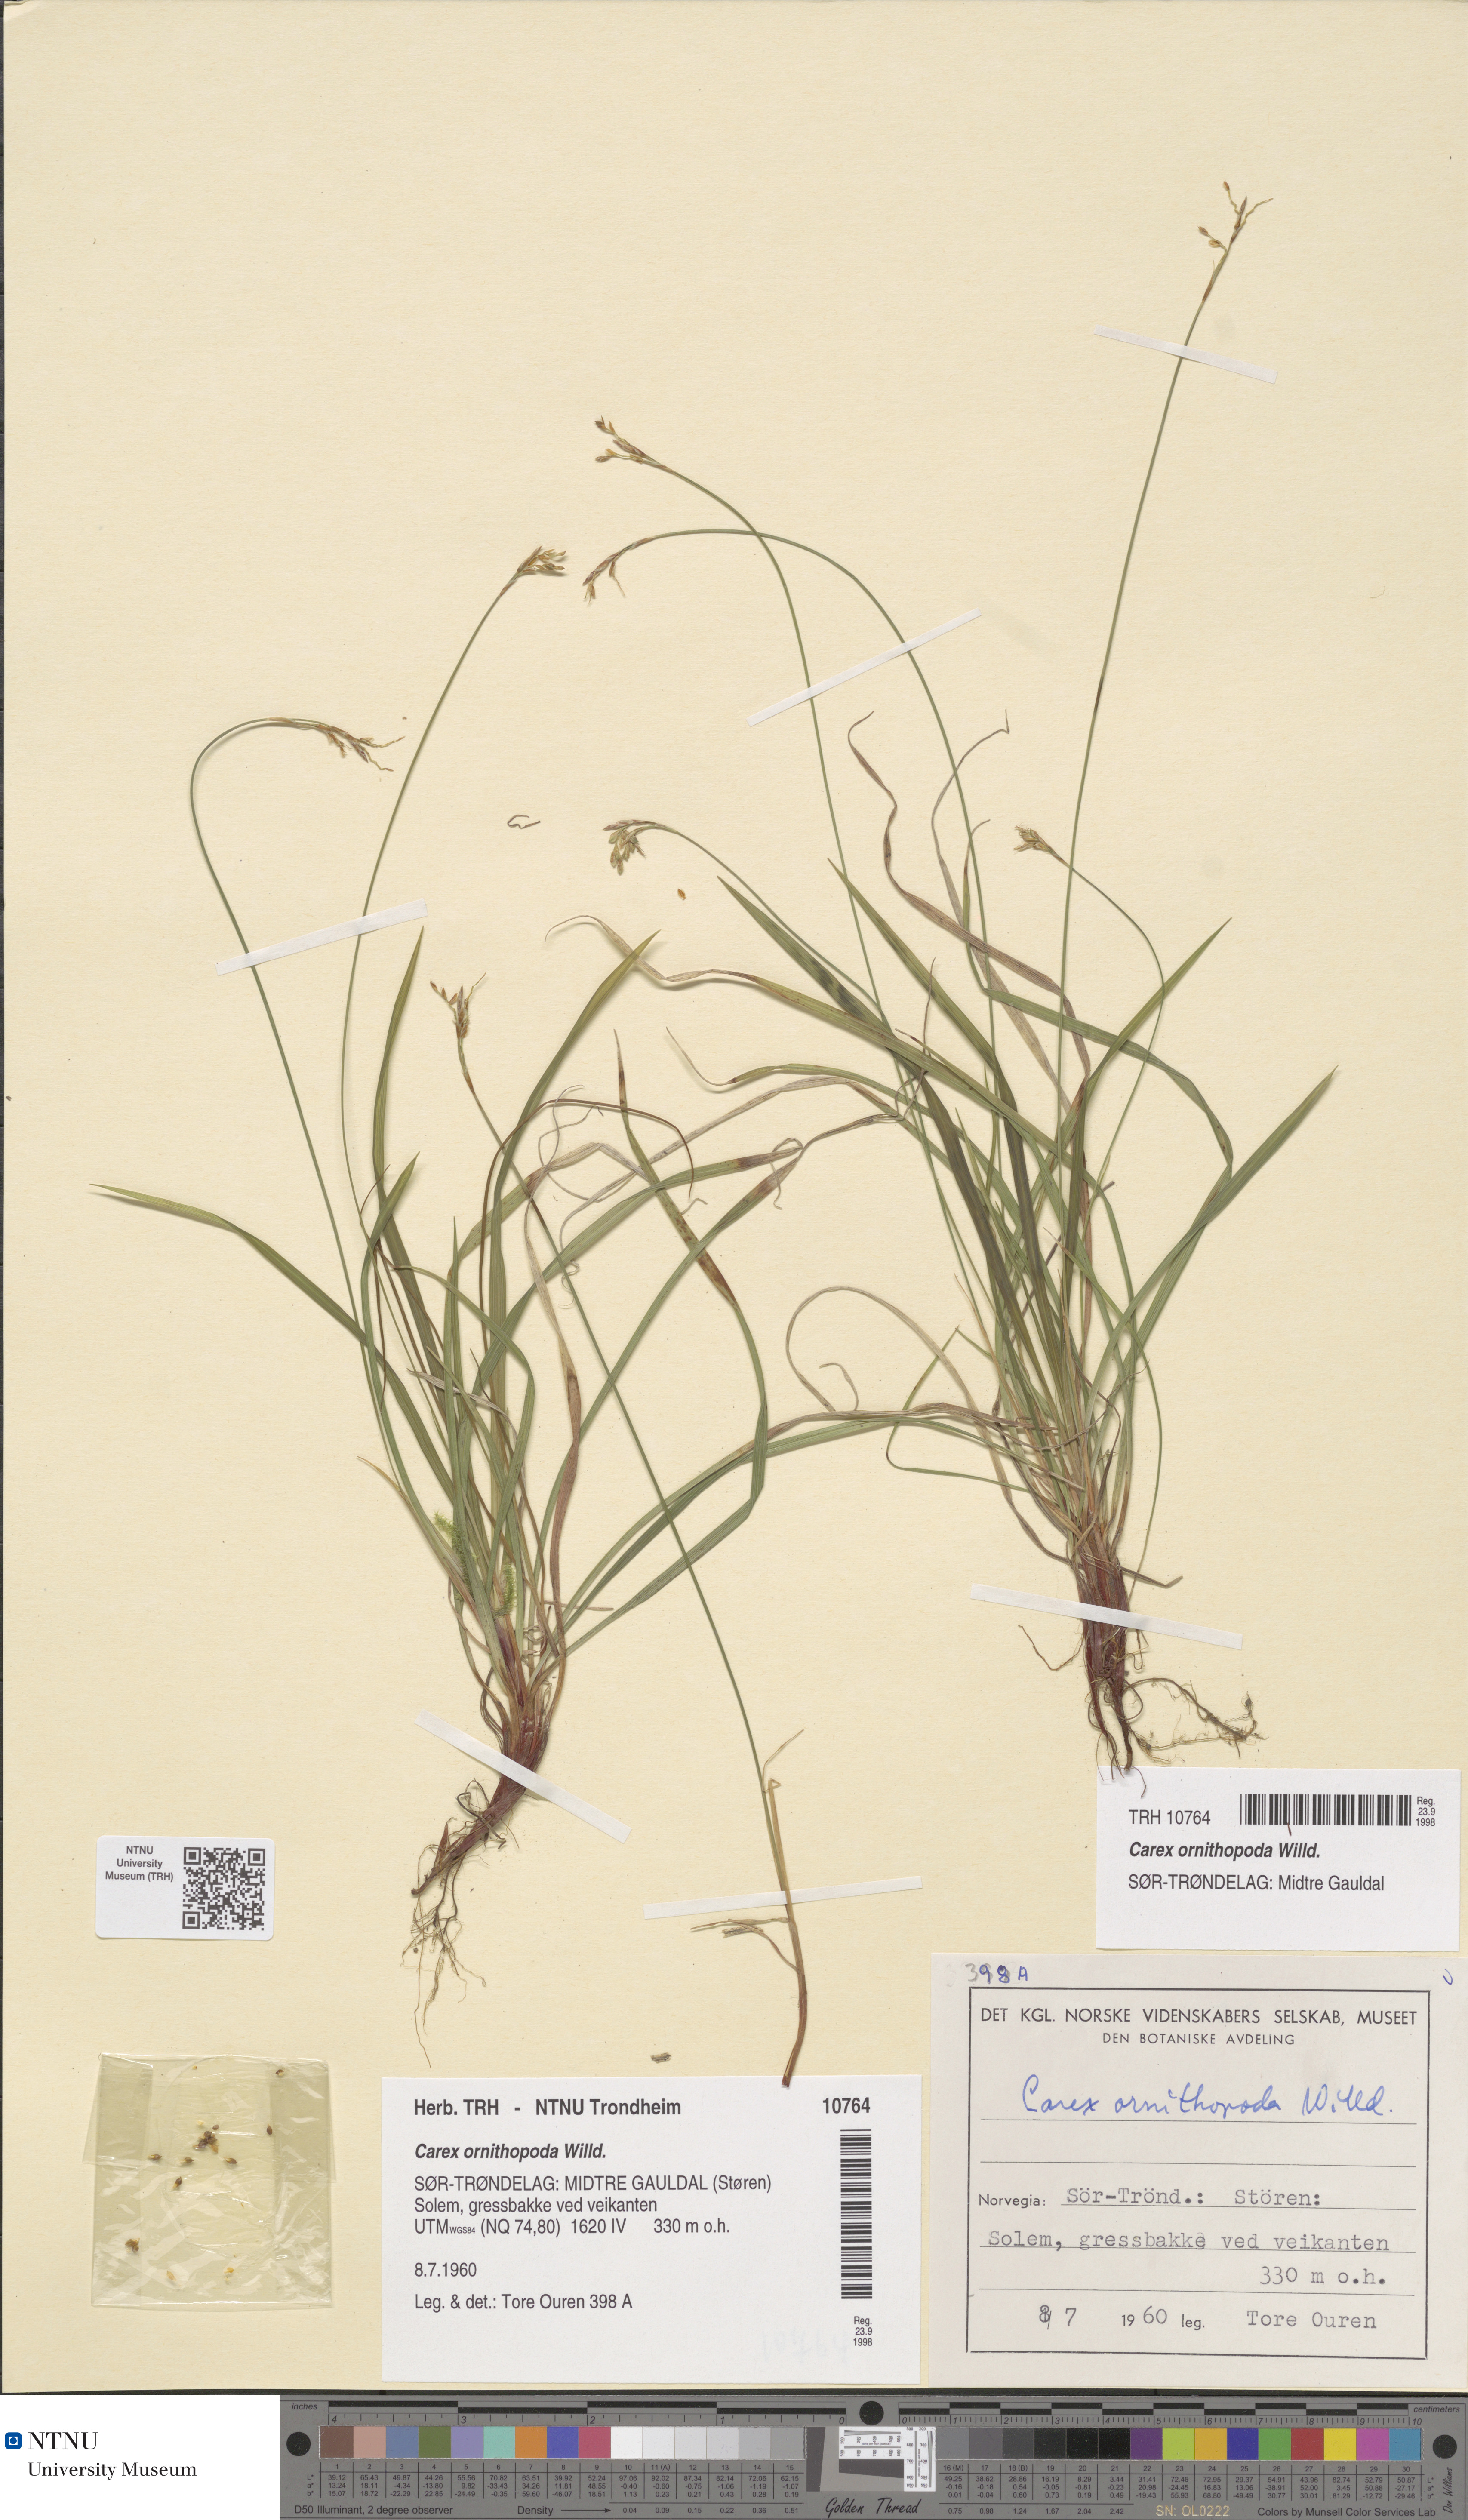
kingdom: Plantae
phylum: Tracheophyta
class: Liliopsida
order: Poales
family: Cyperaceae
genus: Carex
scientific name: Carex ornithopoda
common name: Bird's-foot sedge
